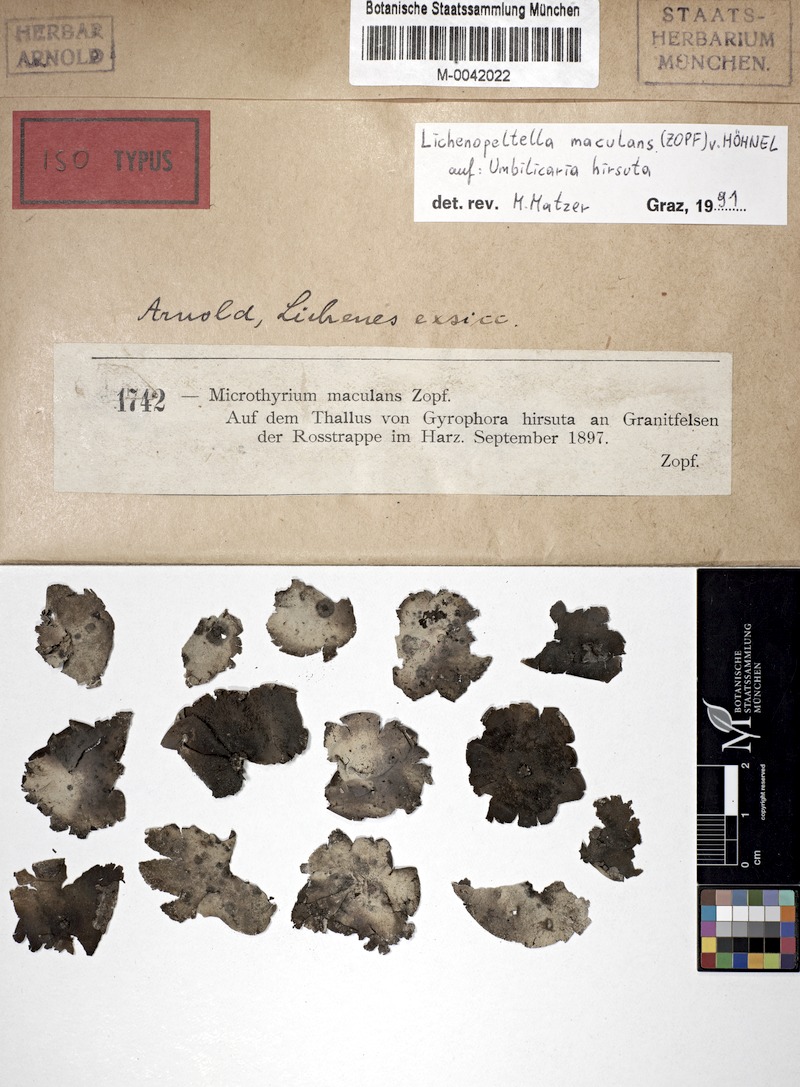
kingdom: Fungi
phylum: Ascomycota
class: Lecanoromycetes
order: Umbilicariales
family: Umbilicariaceae
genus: Umbilicaria
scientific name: Umbilicaria hirsuta
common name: Granulating rocktripe lichen
